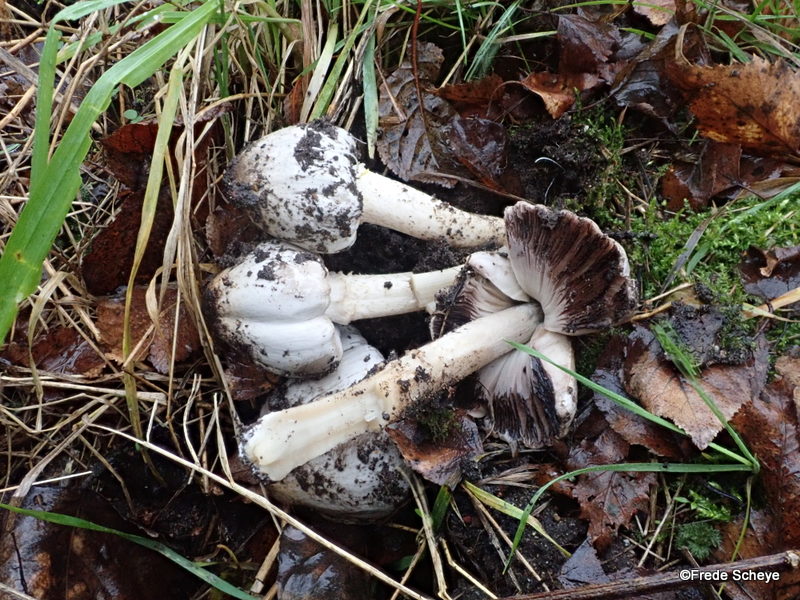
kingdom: Fungi
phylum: Basidiomycota
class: Agaricomycetes
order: Agaricales
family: Psathyrellaceae
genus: Coprinopsis
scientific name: Coprinopsis atramentaria
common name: almindelig blækhat
